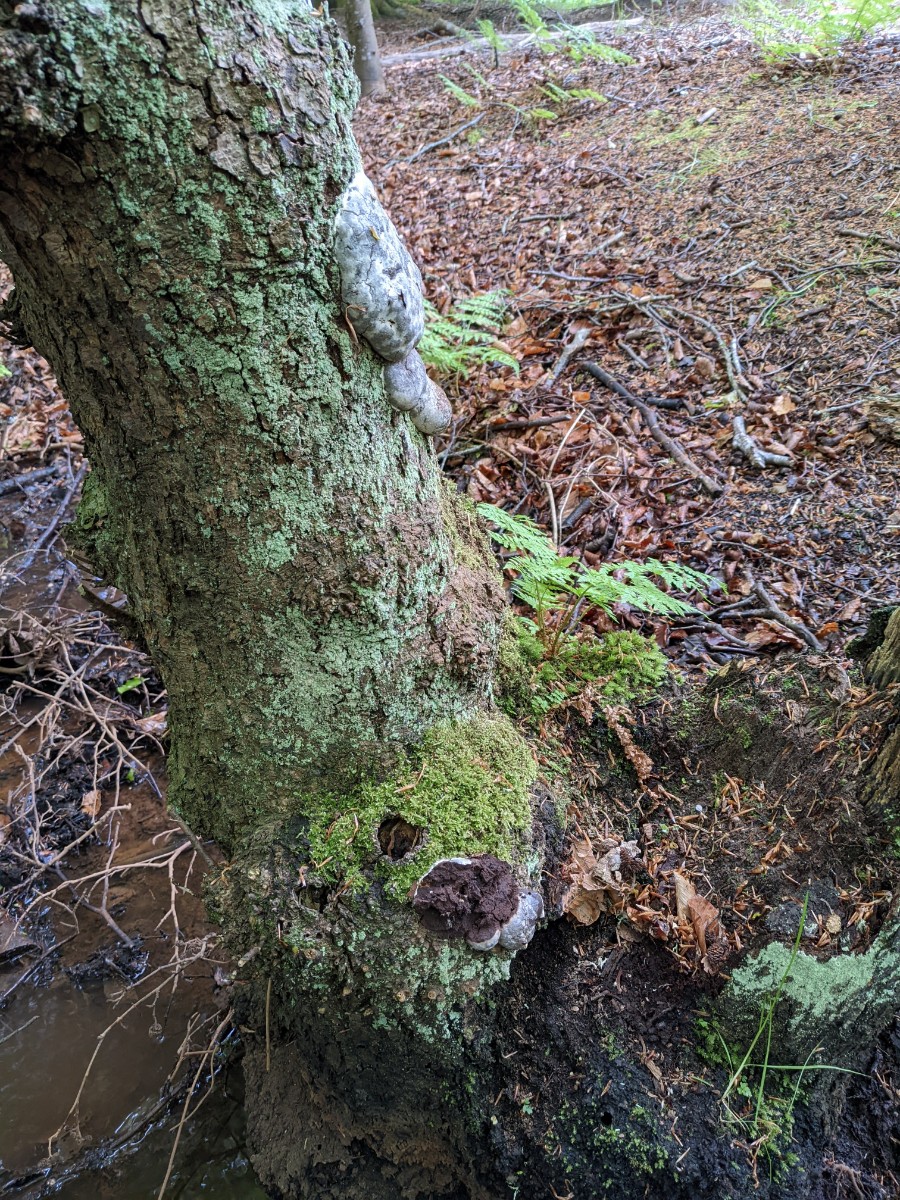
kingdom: Protozoa
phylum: Mycetozoa
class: Myxomycetes
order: Cribrariales
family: Tubiferaceae
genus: Reticularia
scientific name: Reticularia lycoperdon
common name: skinnende støvpude
